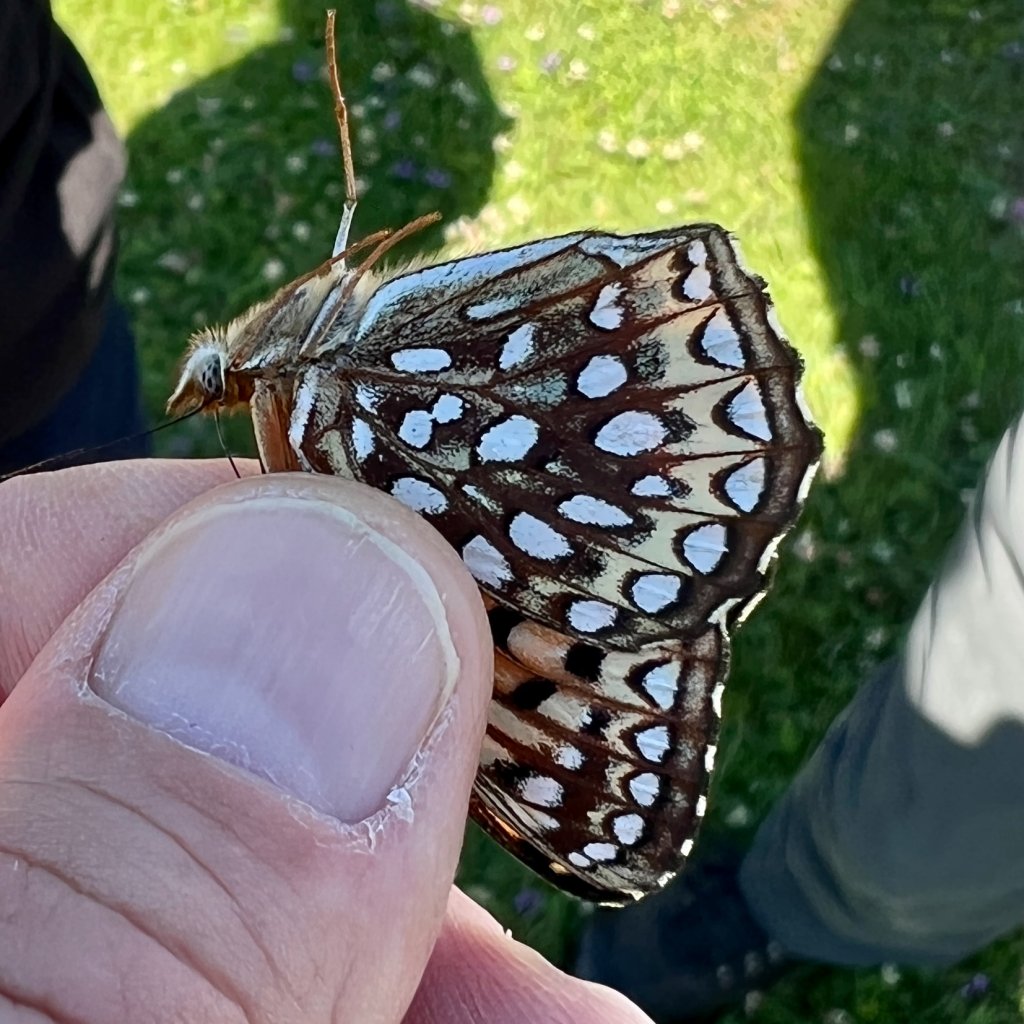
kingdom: Animalia
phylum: Arthropoda
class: Insecta
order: Lepidoptera
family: Nymphalidae
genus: Speyeria
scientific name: Speyeria atlantis
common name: Atlantis Fritillary
